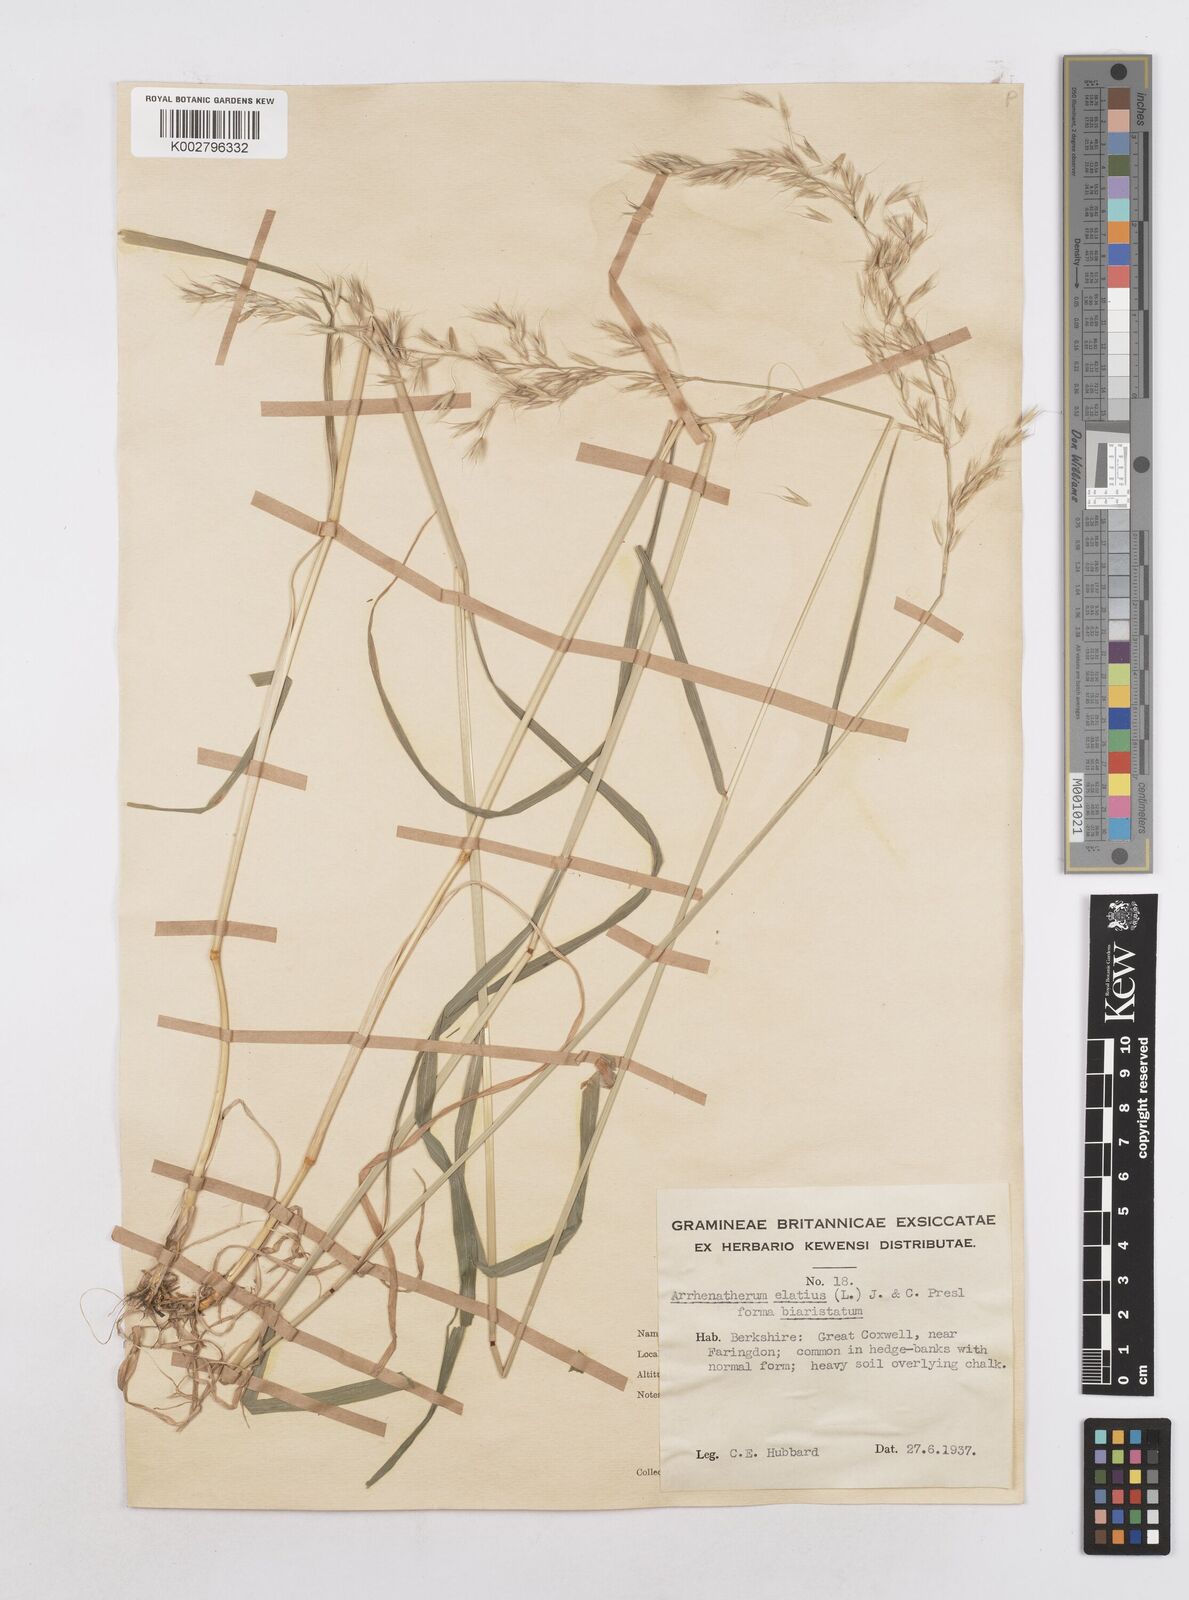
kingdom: Plantae
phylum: Tracheophyta
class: Liliopsida
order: Poales
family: Poaceae
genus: Arrhenatherum
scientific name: Arrhenatherum elatius
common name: Tall oatgrass
